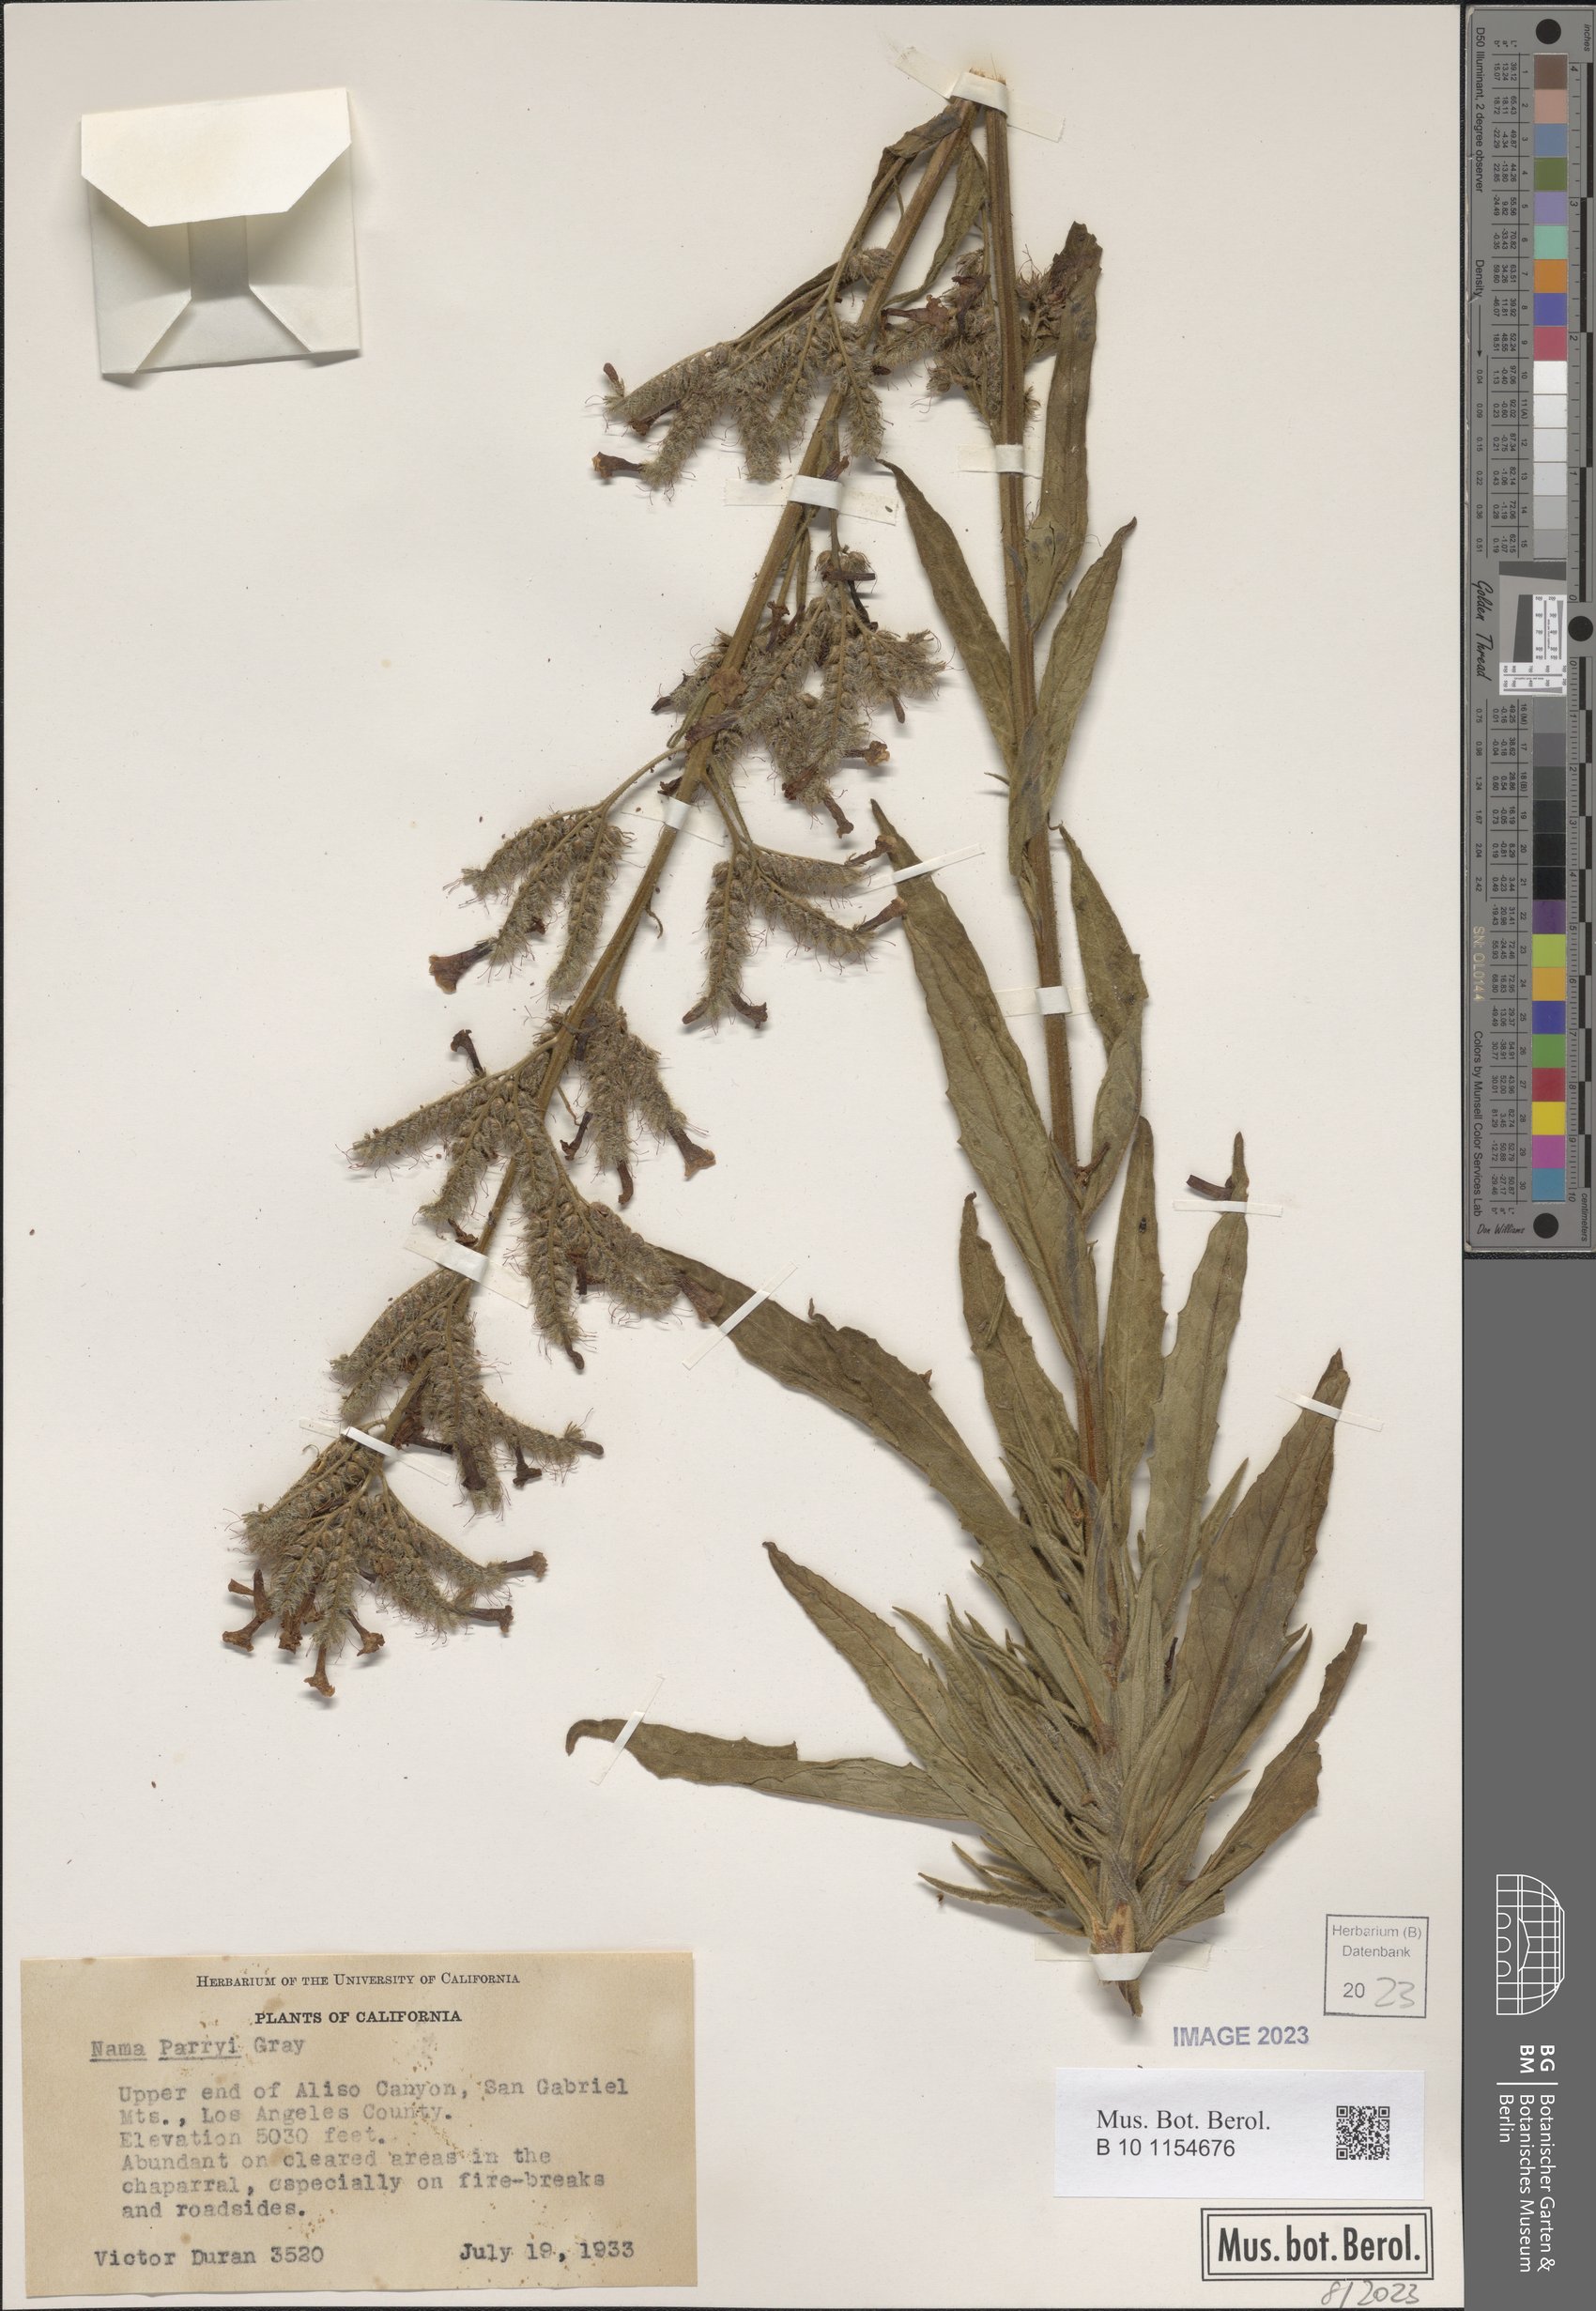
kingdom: Plantae
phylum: Tracheophyta
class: Magnoliopsida
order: Boraginales
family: Namaceae
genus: Turricula
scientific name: Turricula parryi
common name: Poodle-dog-bush
